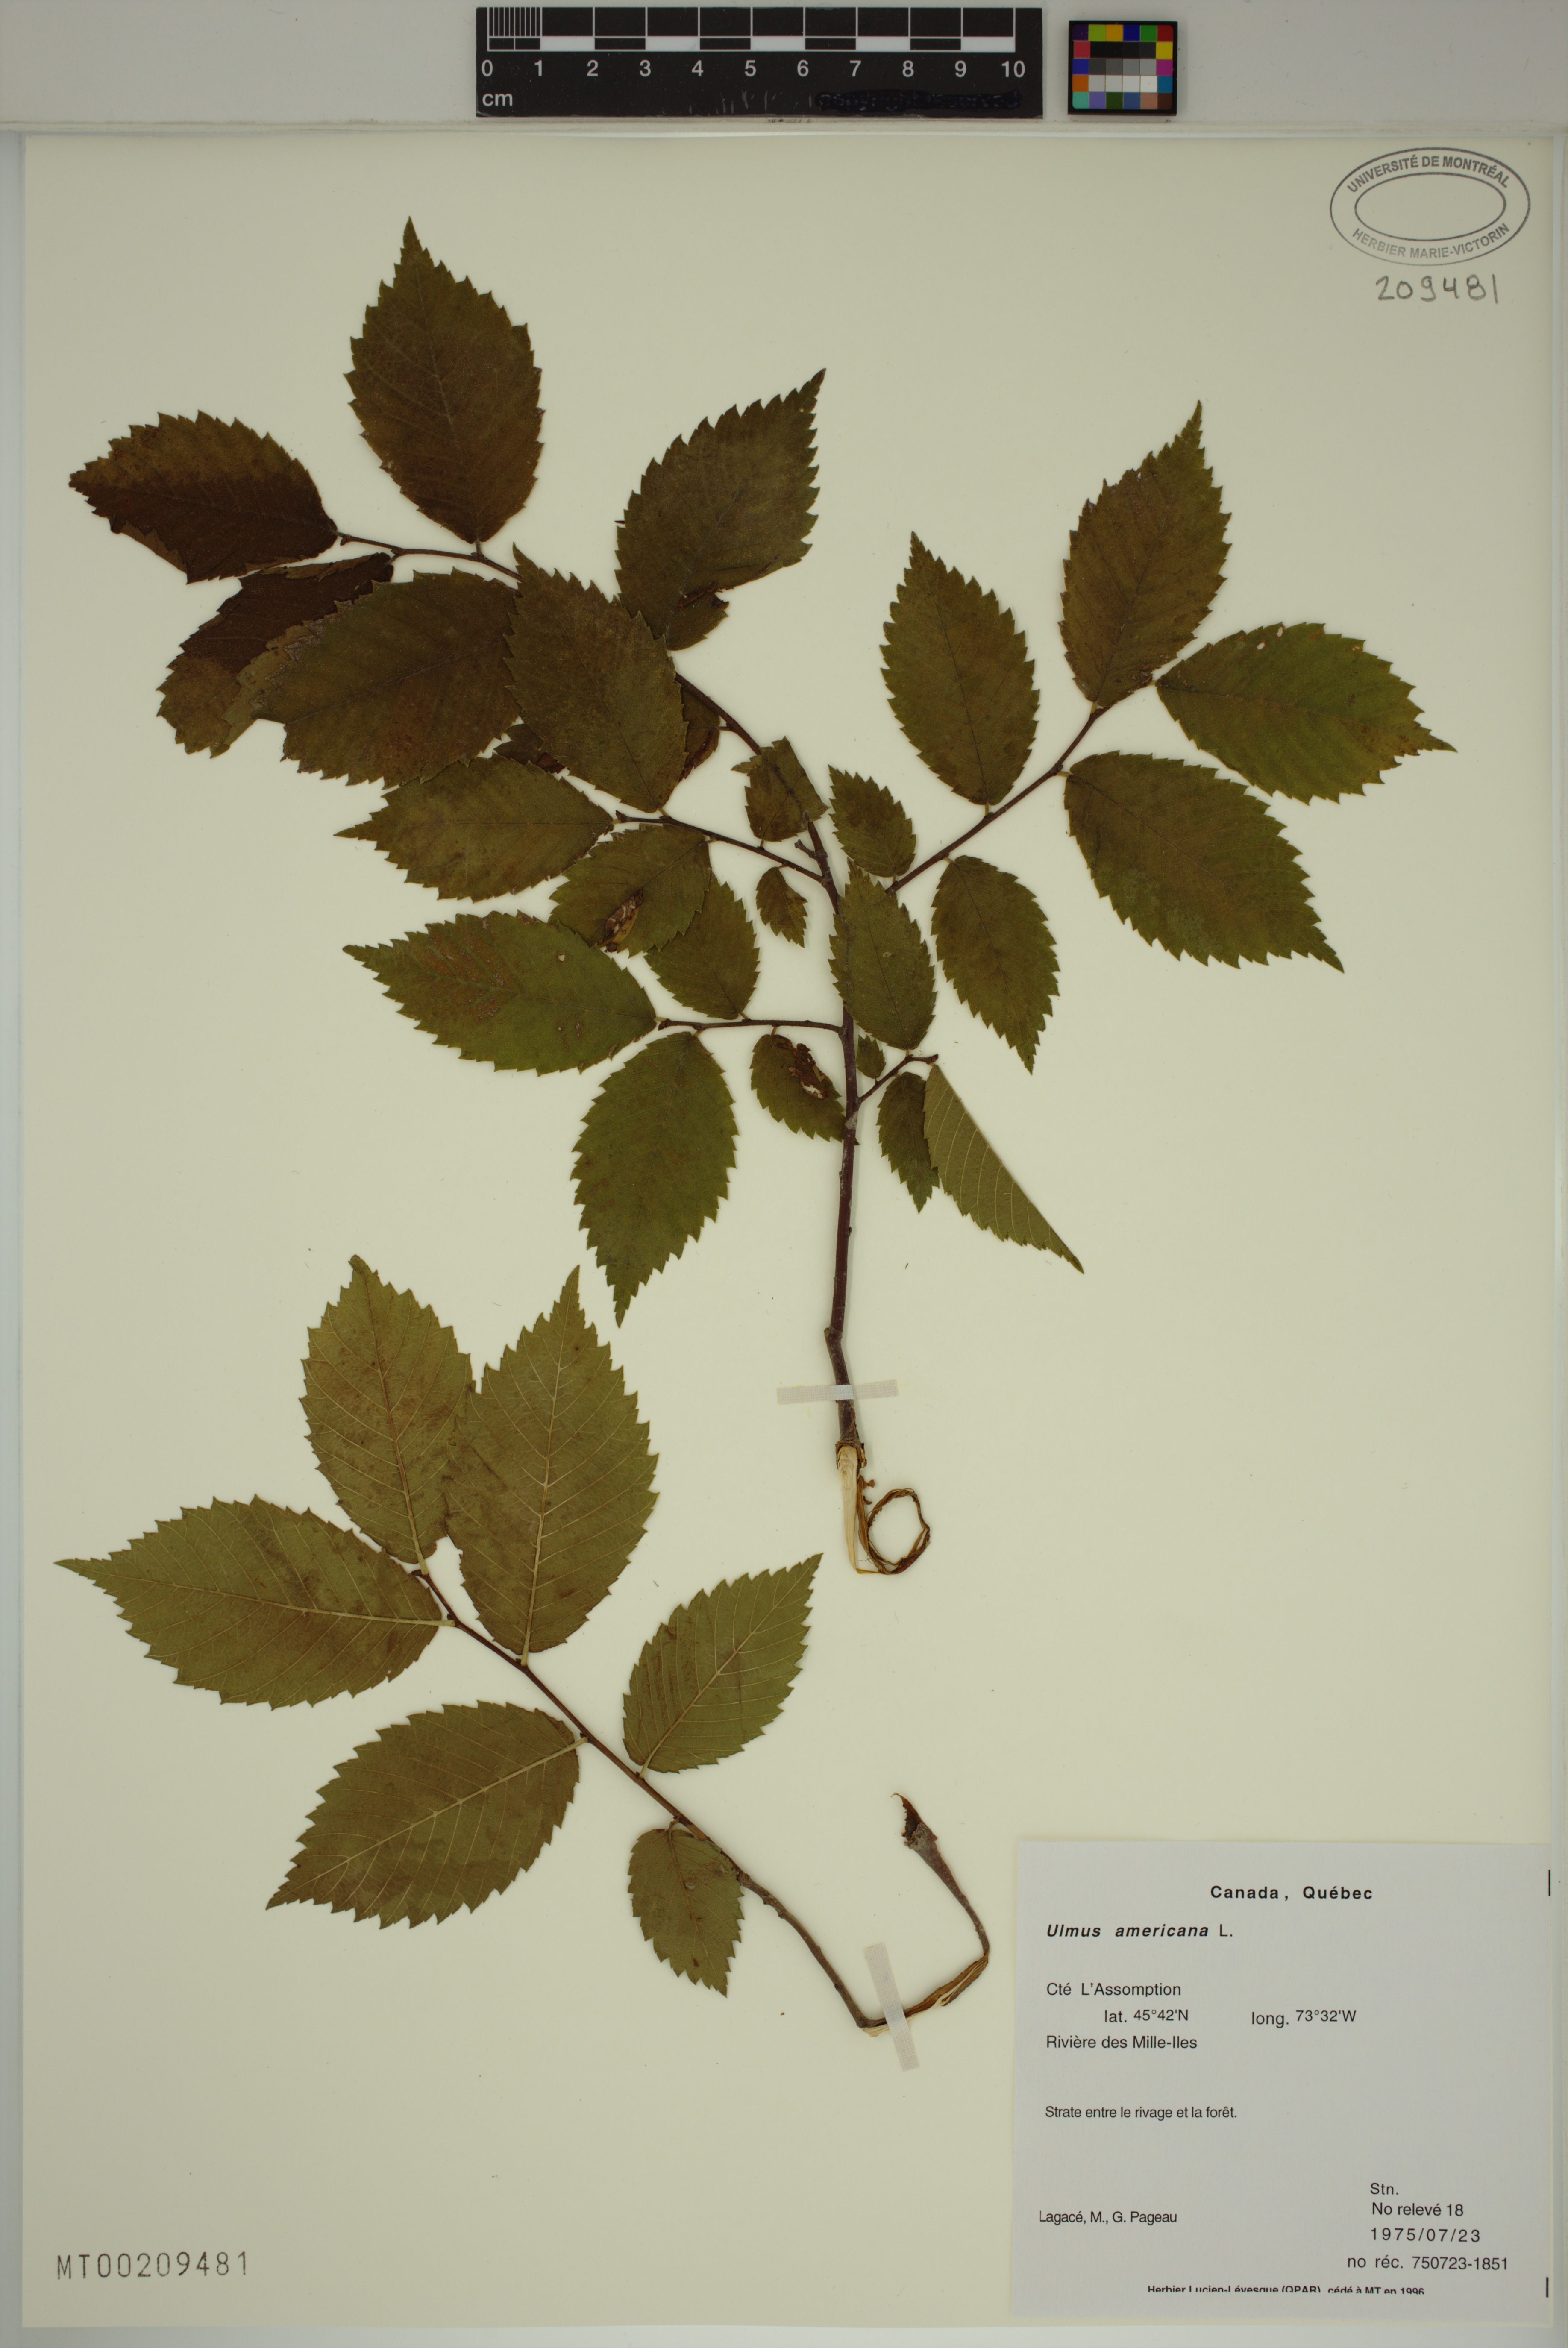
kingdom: Plantae
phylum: Tracheophyta
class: Magnoliopsida
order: Rosales
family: Ulmaceae
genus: Ulmus
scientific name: Ulmus americana
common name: American elm
